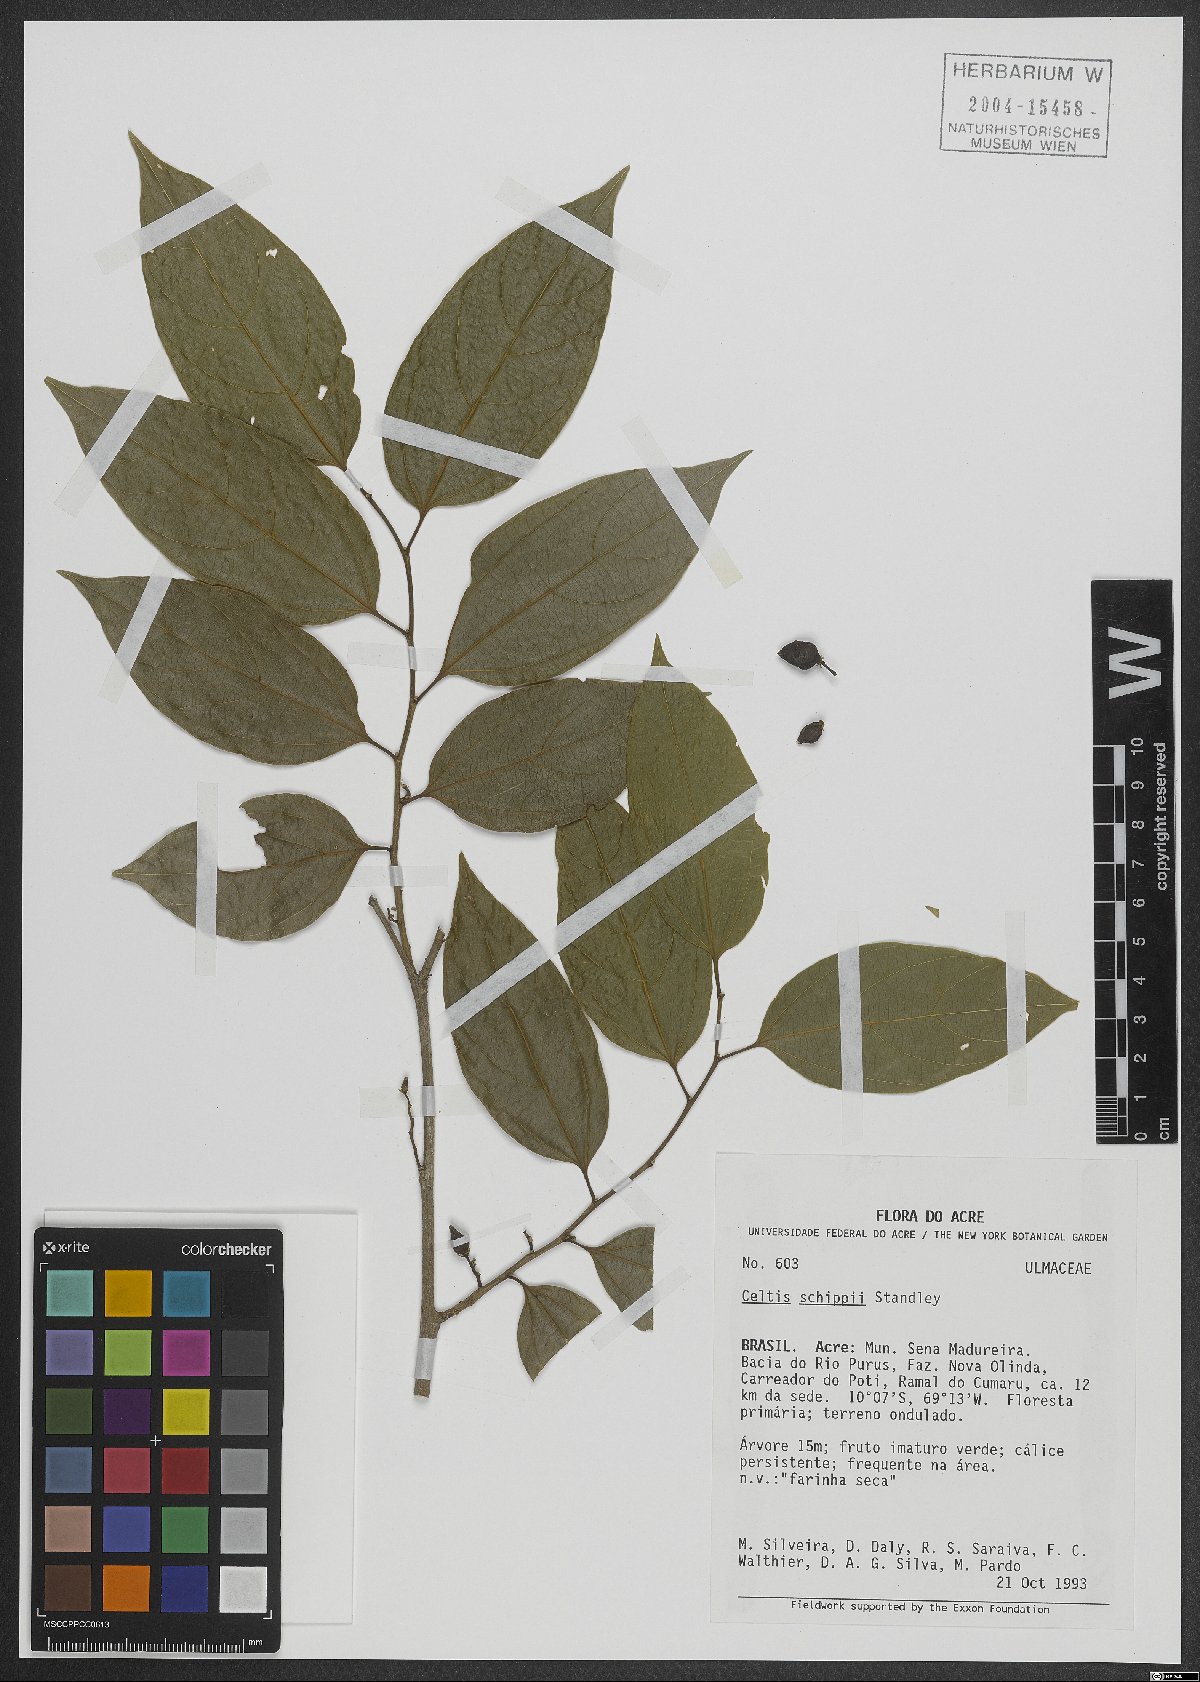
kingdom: Plantae
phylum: Tracheophyta
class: Magnoliopsida
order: Rosales
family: Cannabaceae
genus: Celtis
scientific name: Celtis schippii
